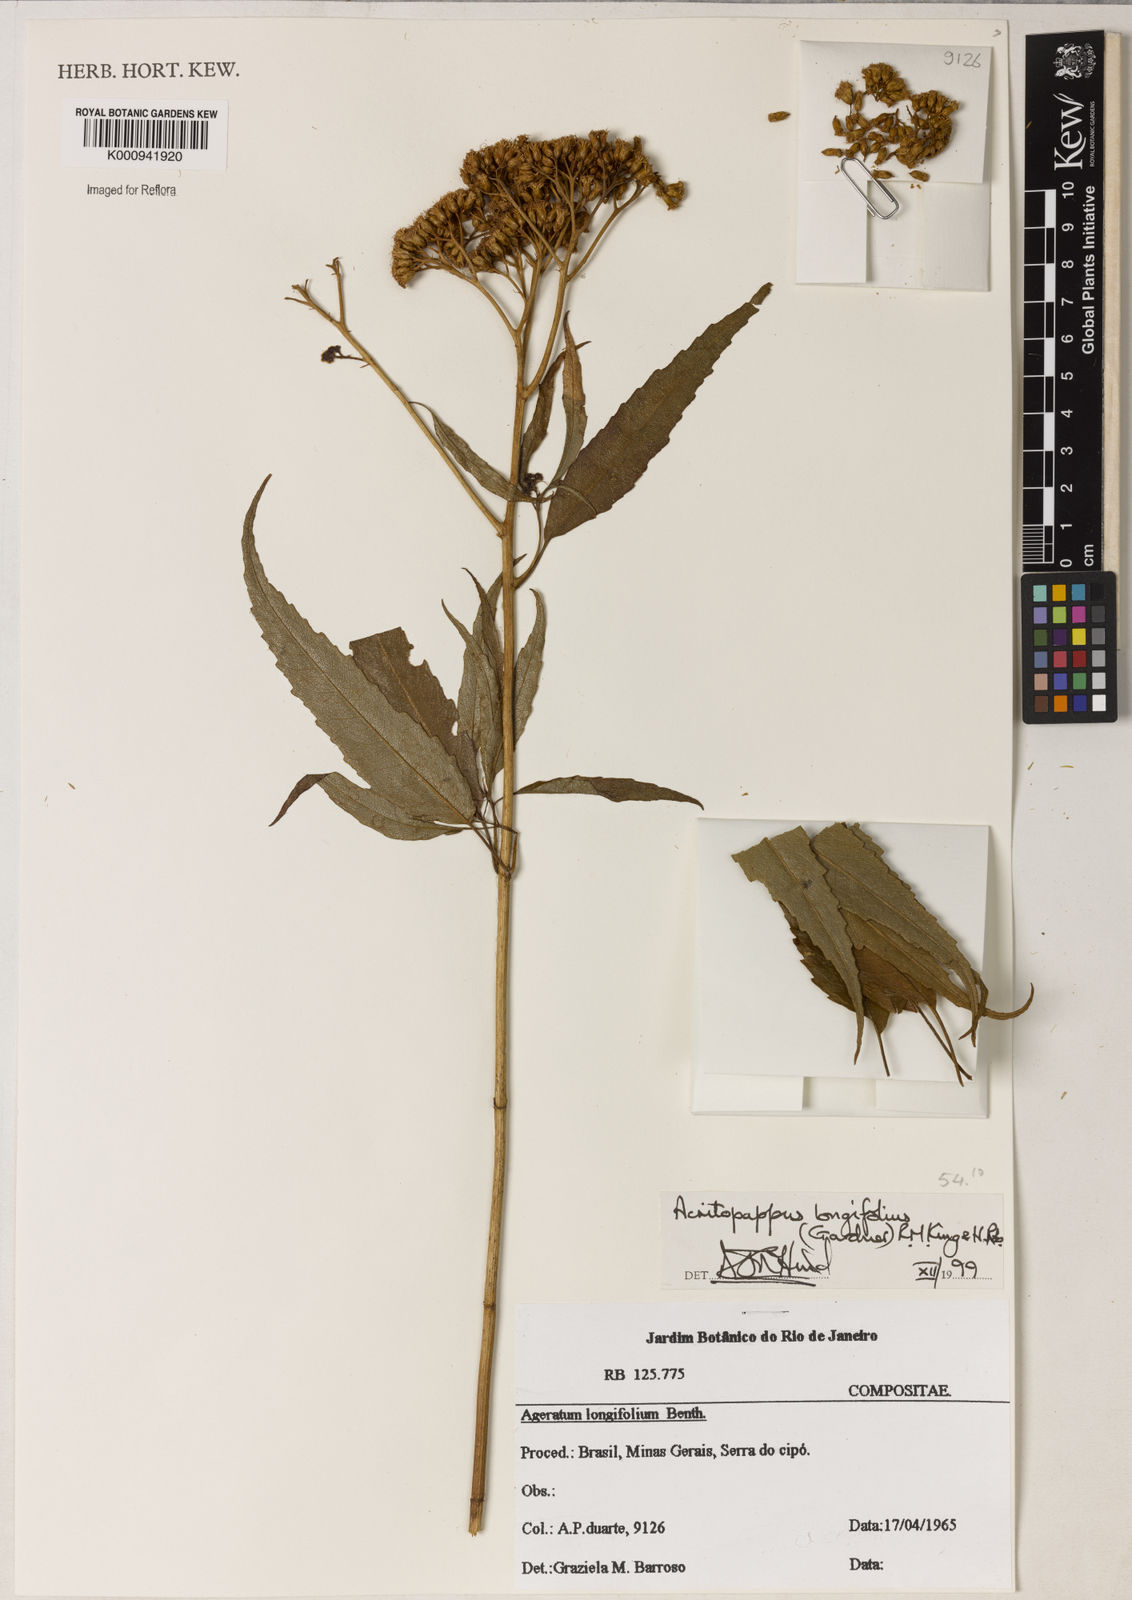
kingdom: Plantae
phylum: Tracheophyta
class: Magnoliopsida
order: Asterales
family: Asteraceae
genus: Acritopappus
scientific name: Acritopappus longifolius
